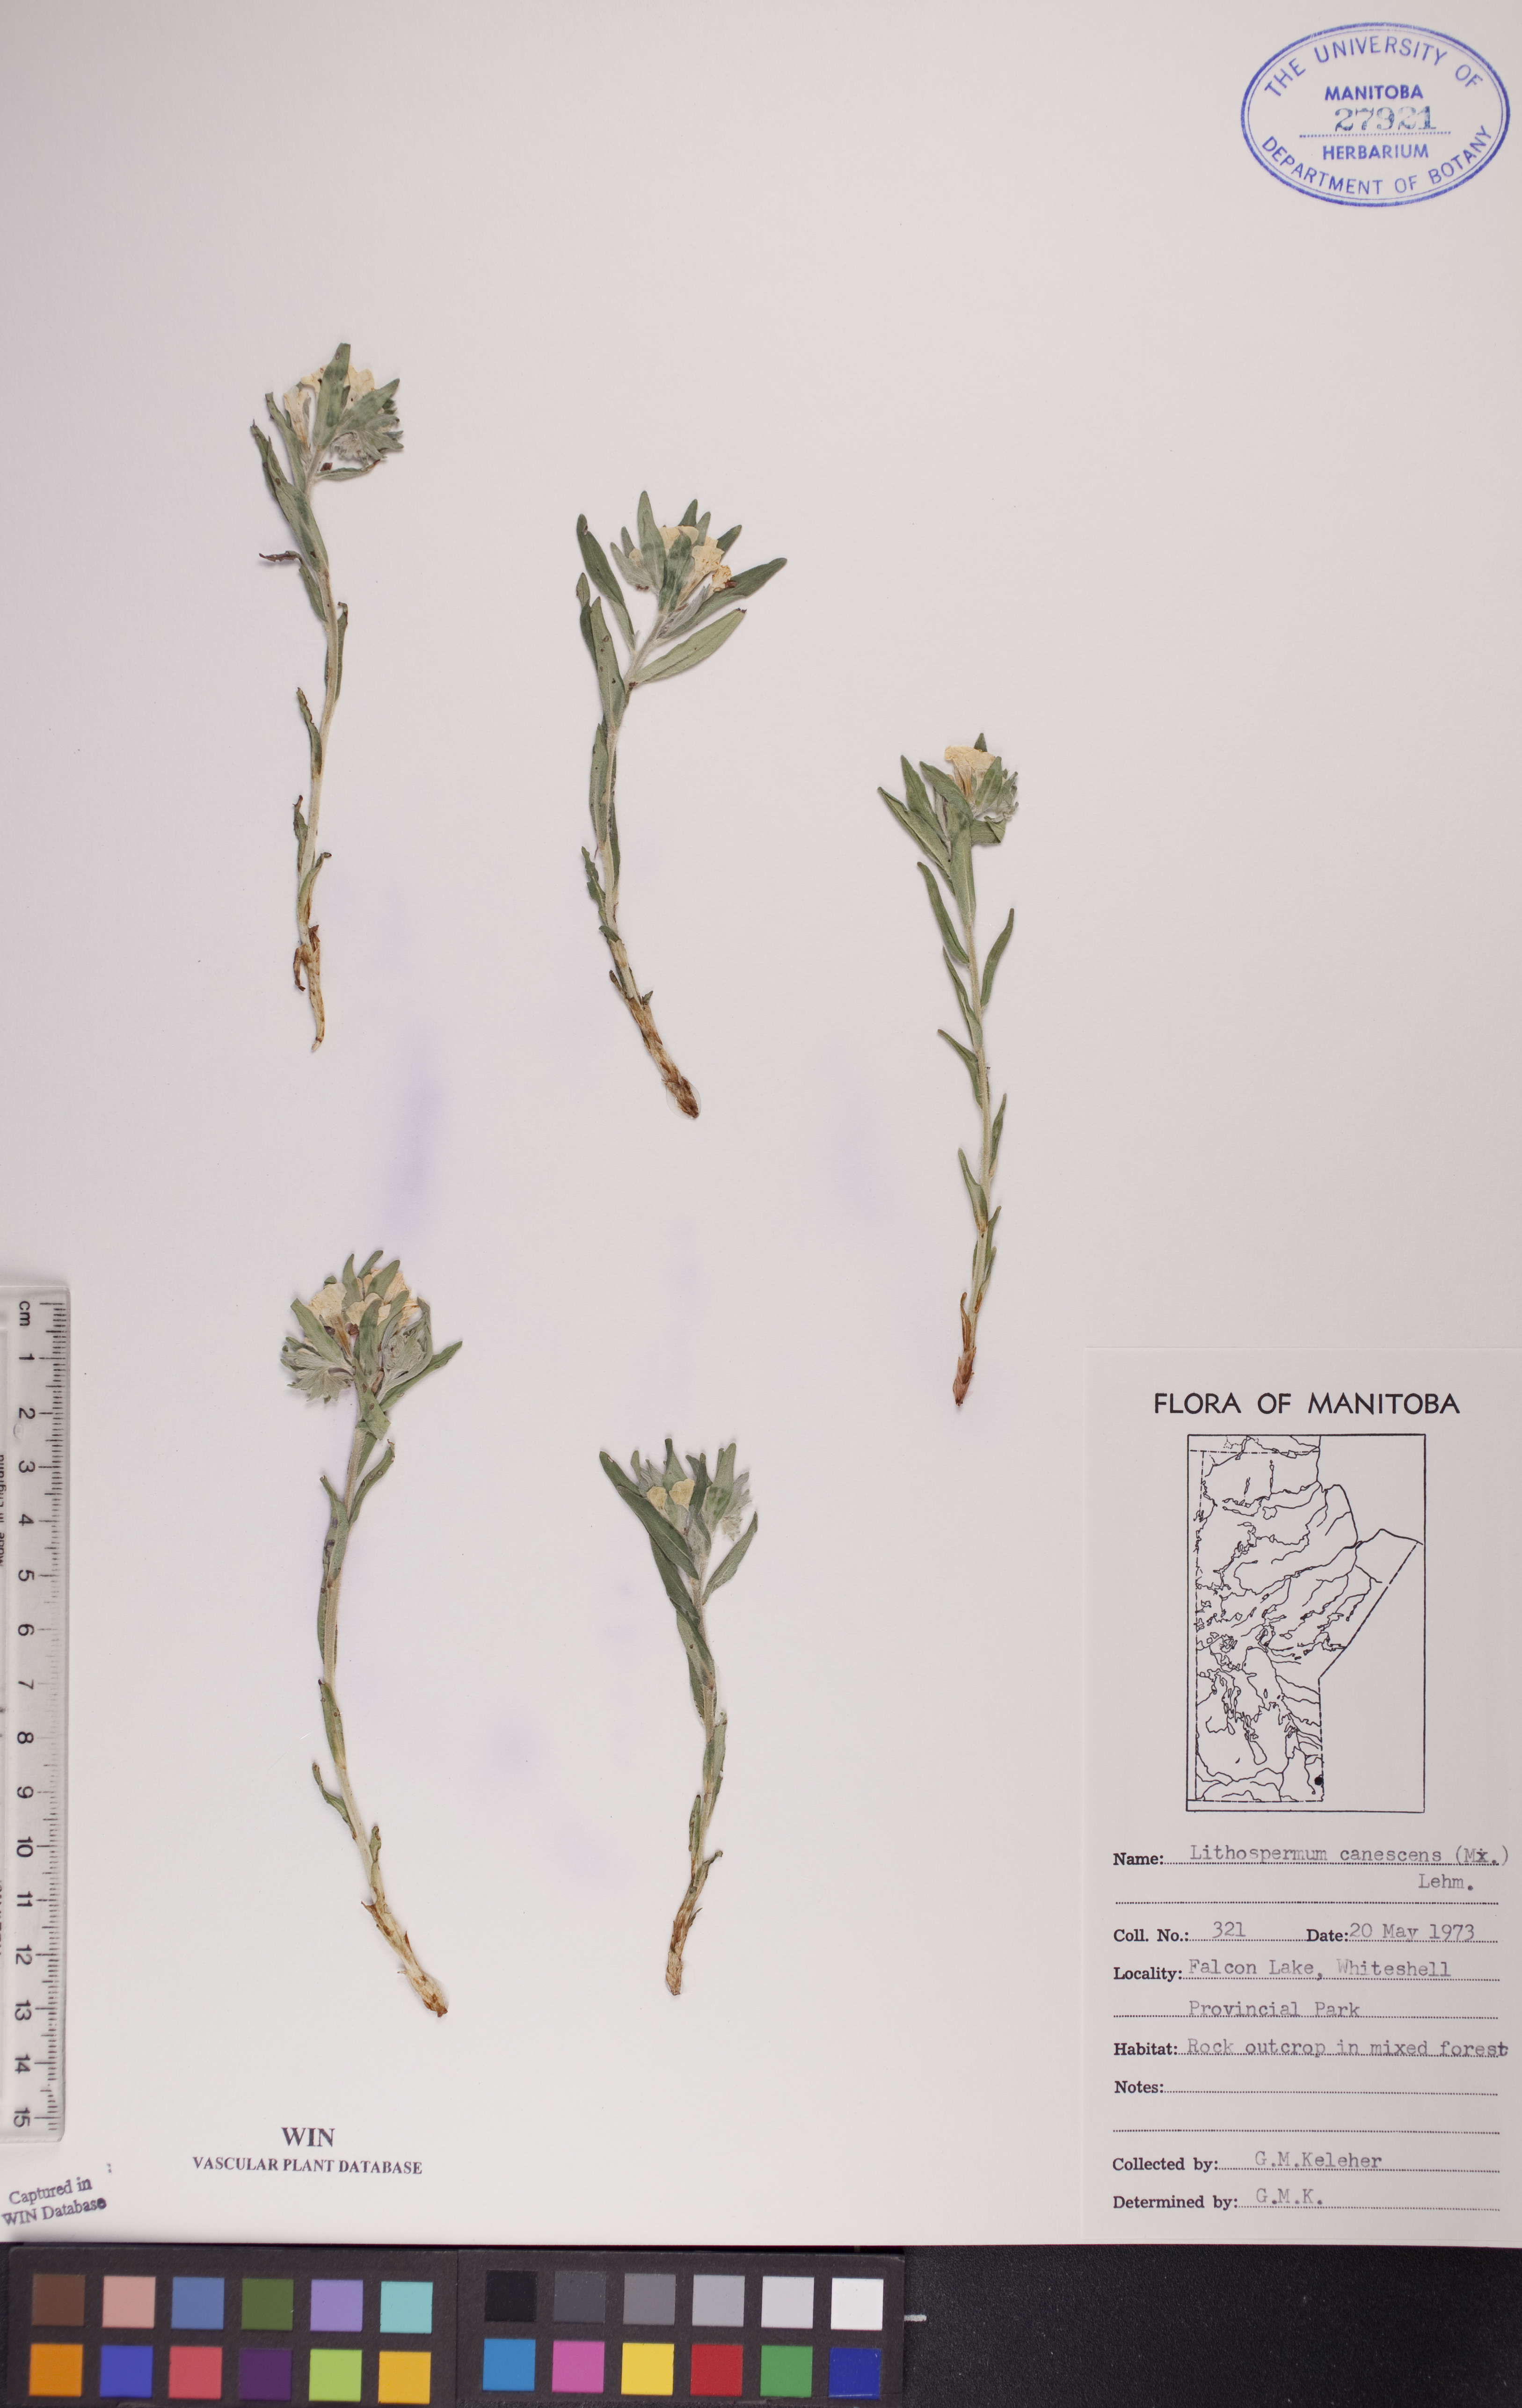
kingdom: Plantae
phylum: Tracheophyta
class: Magnoliopsida
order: Boraginales
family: Boraginaceae
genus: Lithospermum
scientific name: Lithospermum canescens
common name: Hoary puccoon
